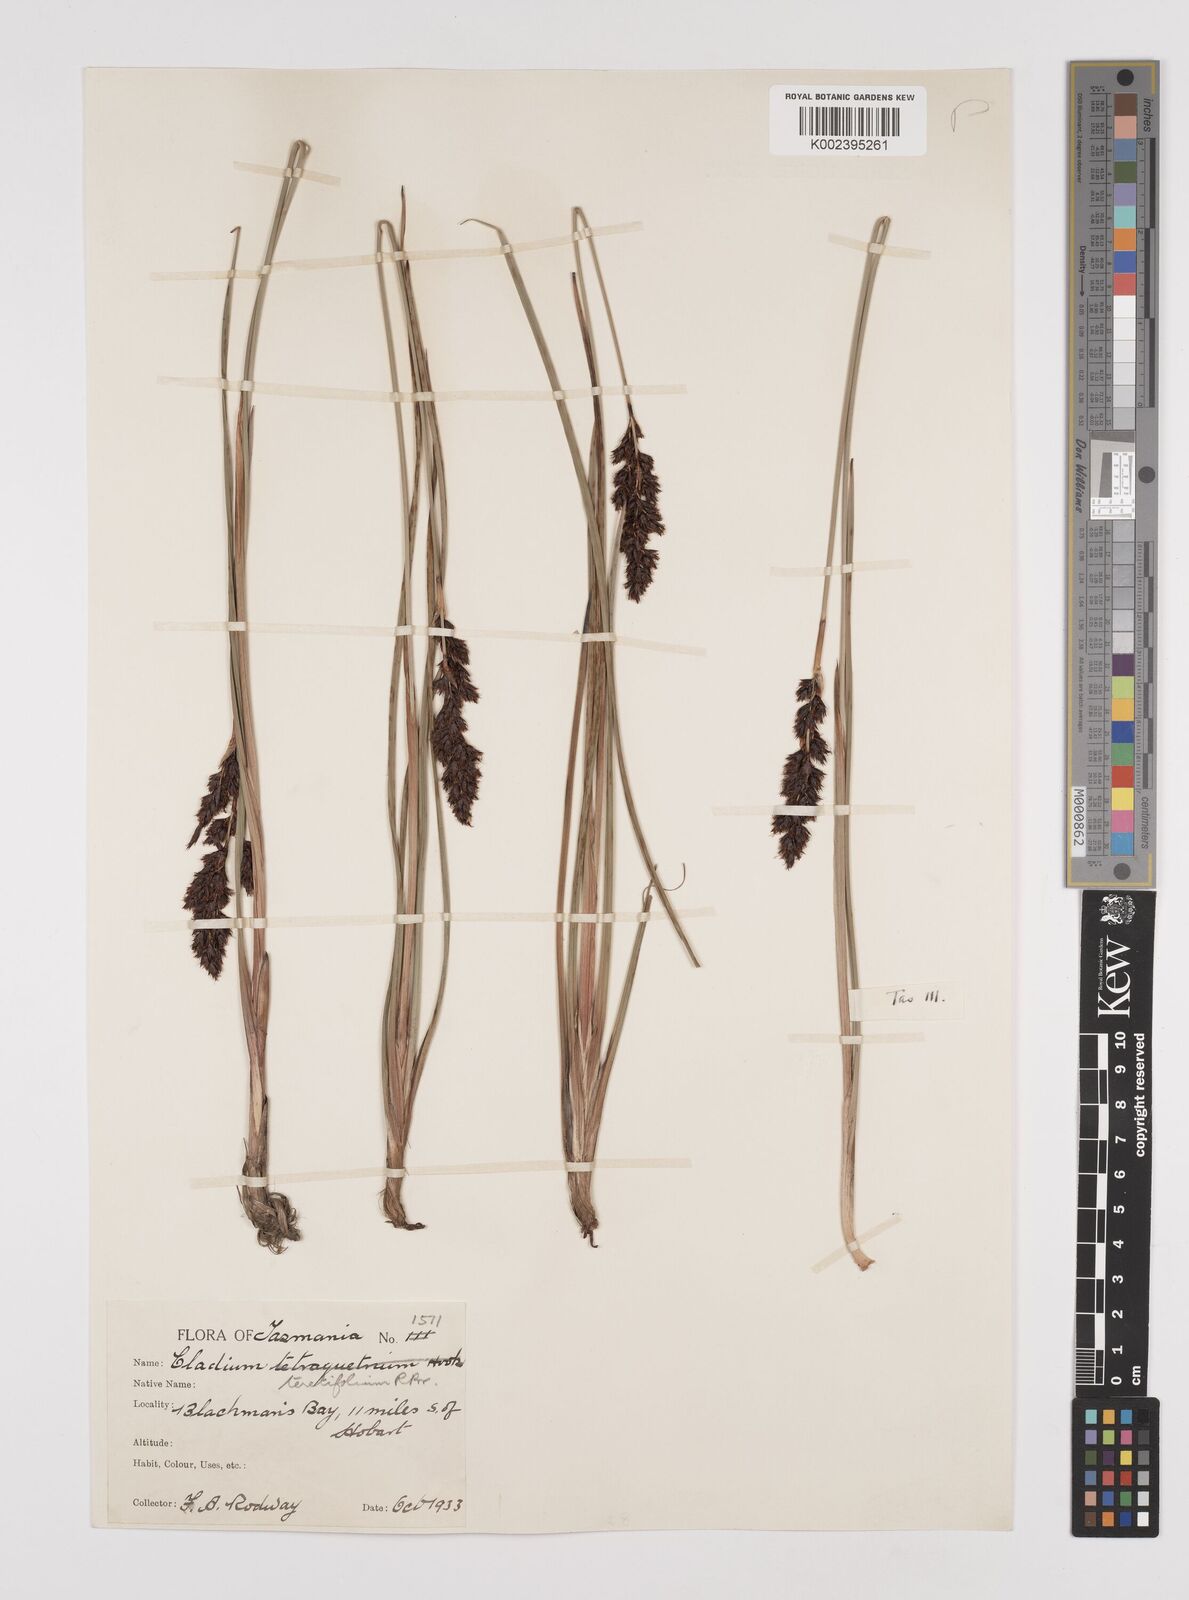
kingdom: Plantae
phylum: Tracheophyta
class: Liliopsida
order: Poales
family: Cyperaceae
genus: Machaerina
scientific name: Machaerina tetragona
